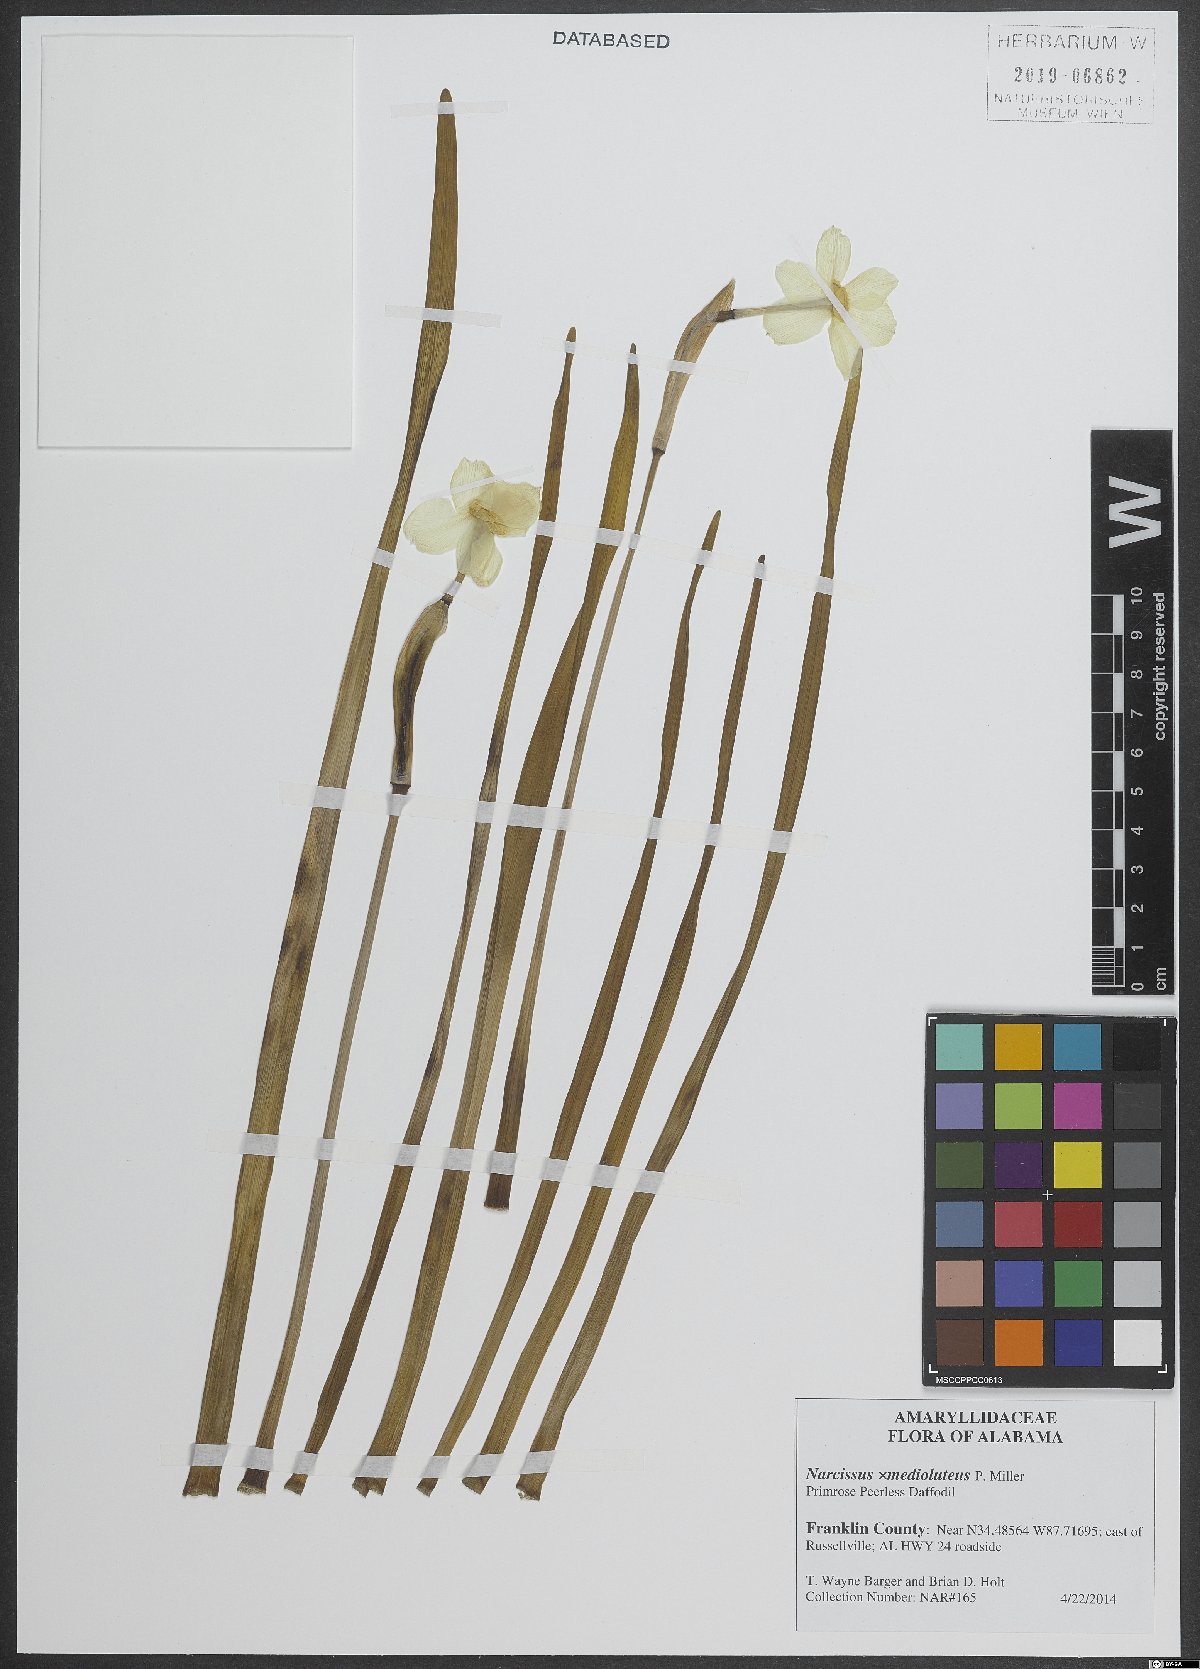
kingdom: Plantae
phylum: Tracheophyta
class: Liliopsida
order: Asparagales
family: Amaryllidaceae
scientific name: Amaryllidaceae
